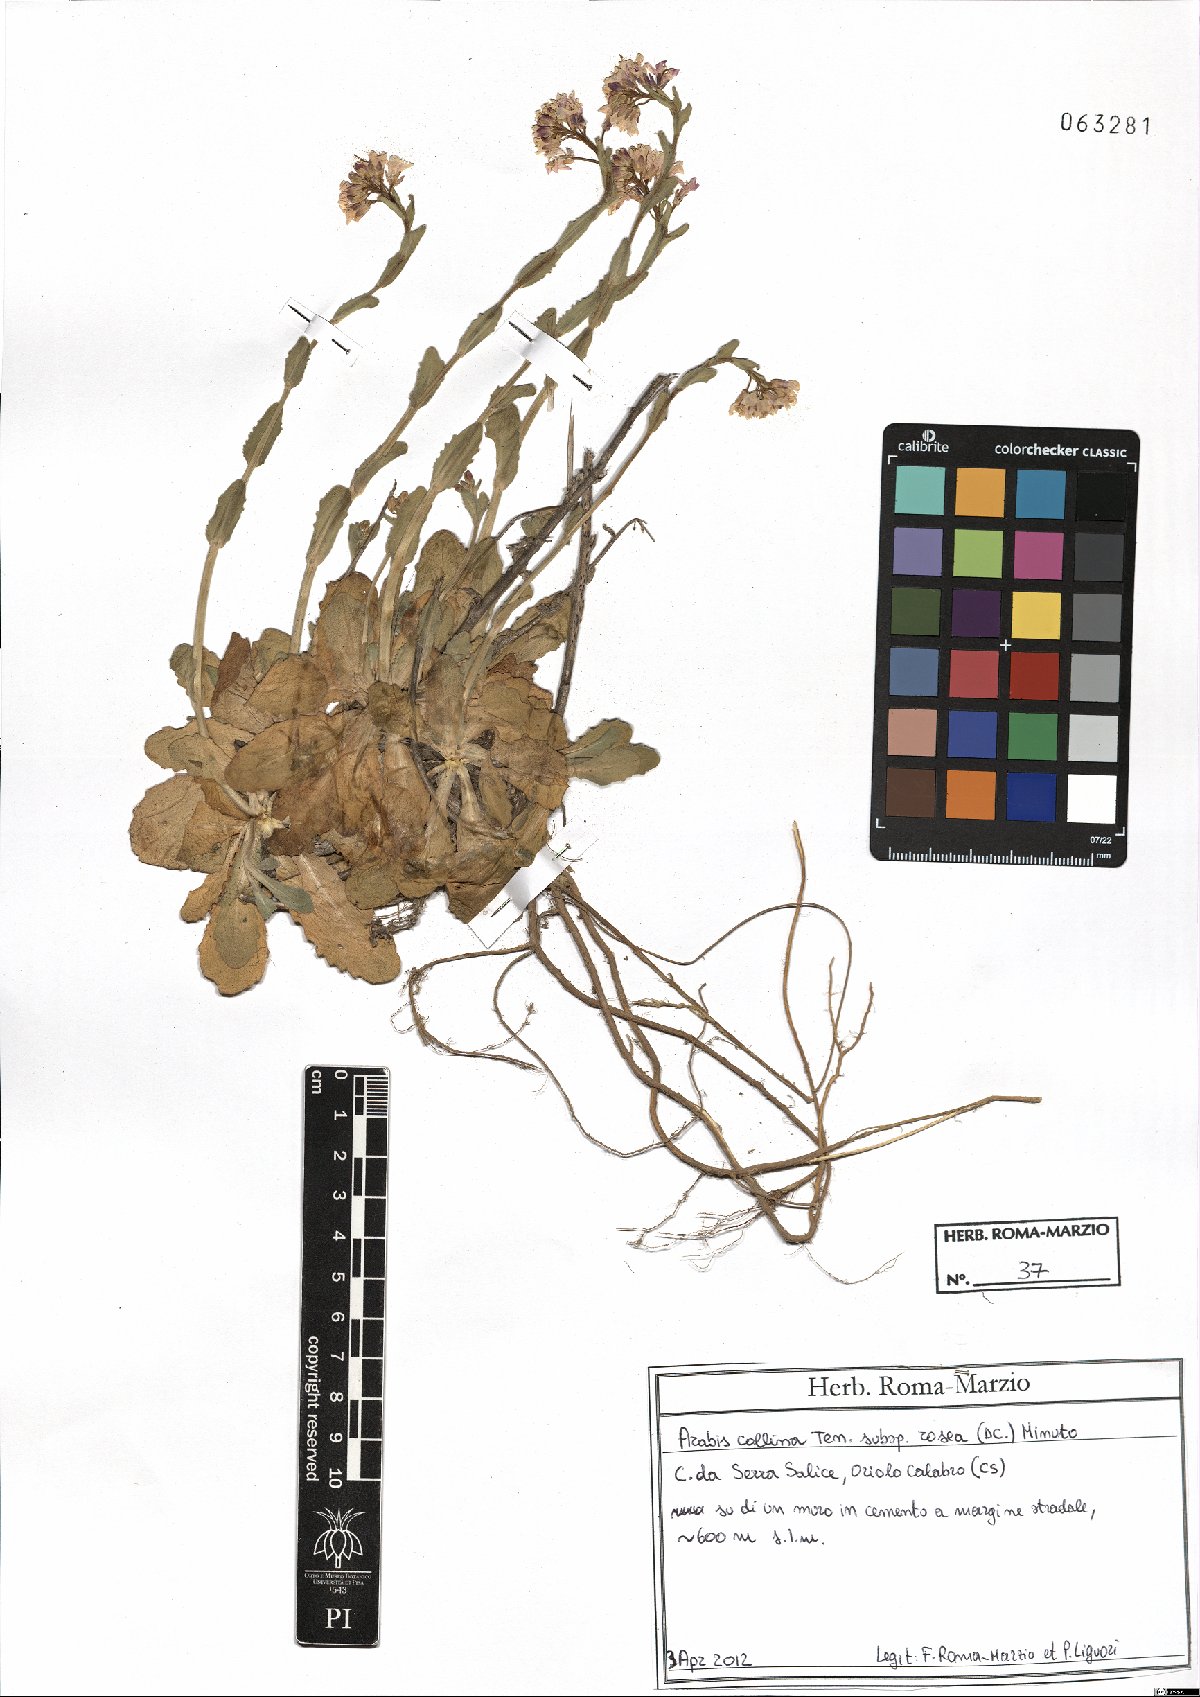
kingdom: Plantae
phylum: Tracheophyta
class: Magnoliopsida
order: Brassicales
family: Brassicaceae
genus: Arabis
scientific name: Arabis collina
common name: Rosy cress
